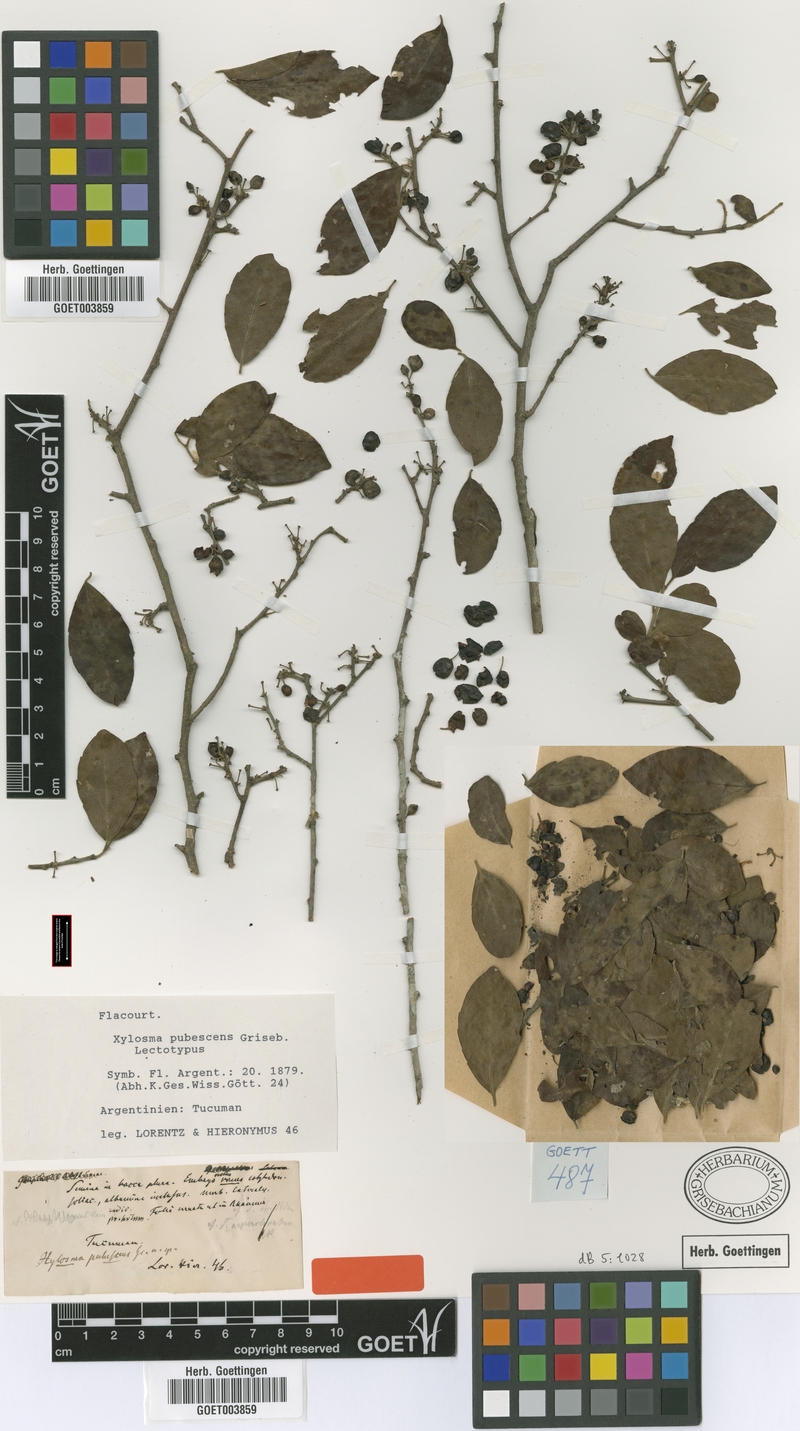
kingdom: Plantae
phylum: Tracheophyta
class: Magnoliopsida
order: Malpighiales
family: Salicaceae
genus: Xylosma
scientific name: Xylosma pubescens
